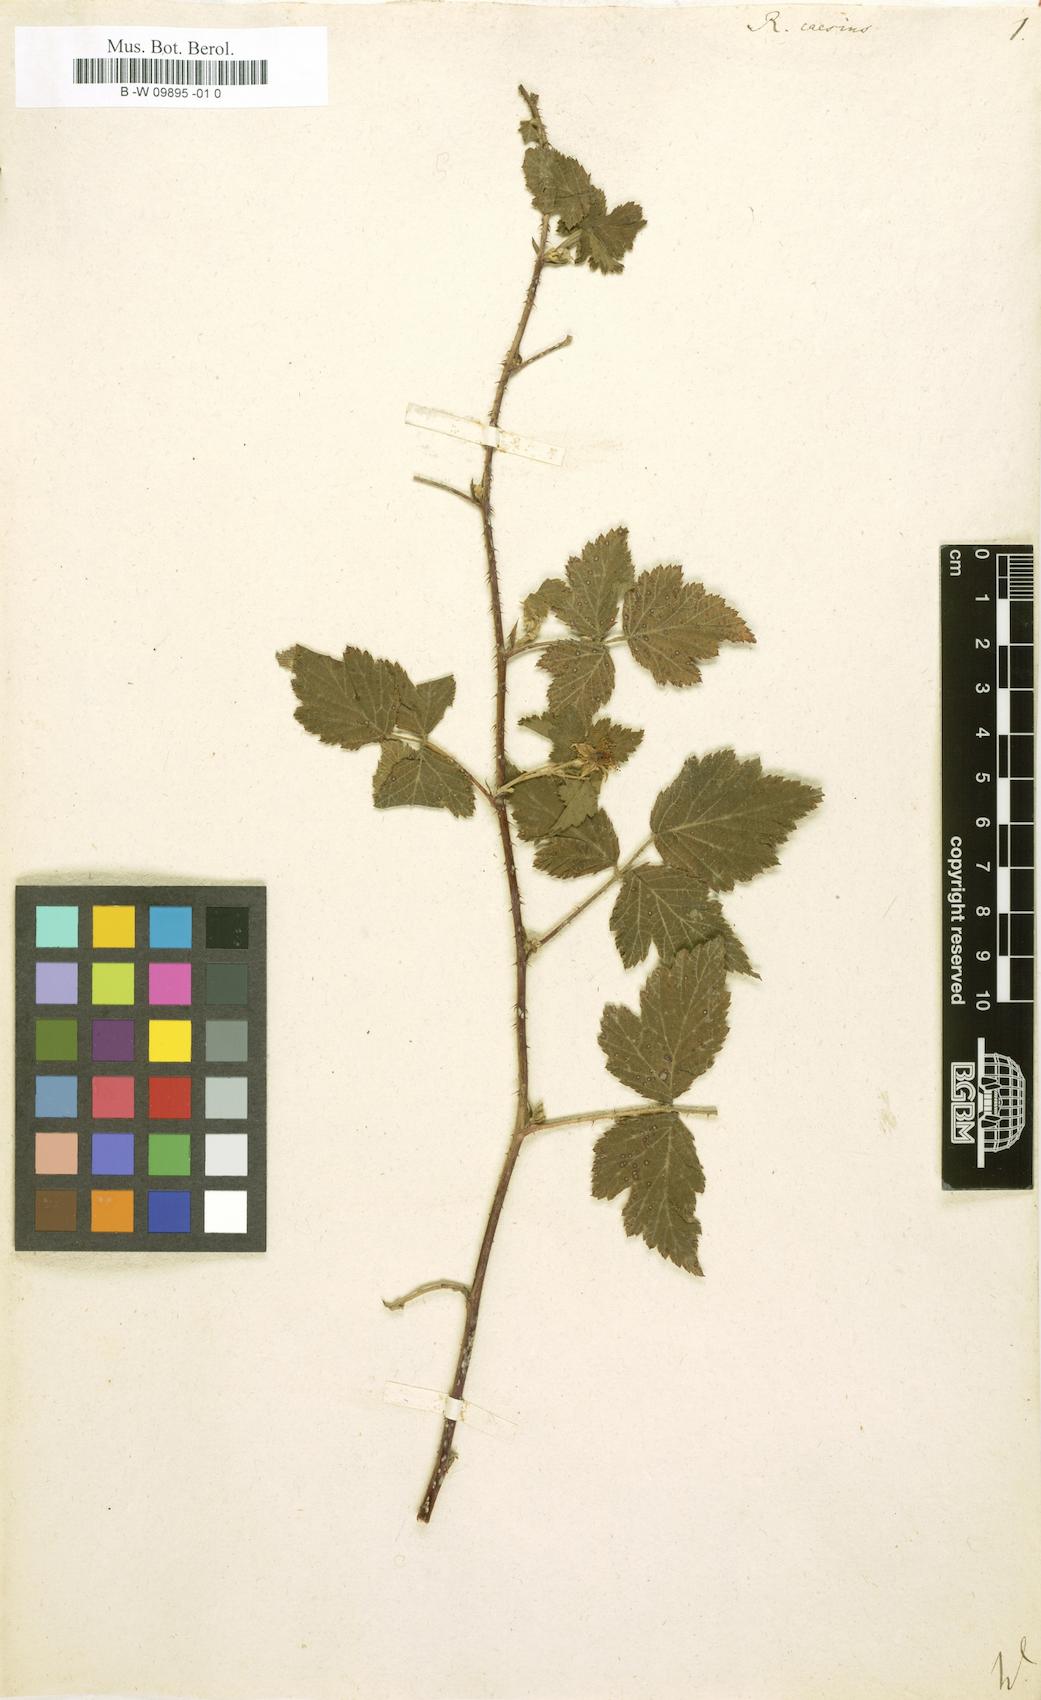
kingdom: Plantae
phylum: Tracheophyta
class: Magnoliopsida
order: Rosales
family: Rosaceae
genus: Rubus
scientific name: Rubus caesius
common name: Dewberry
